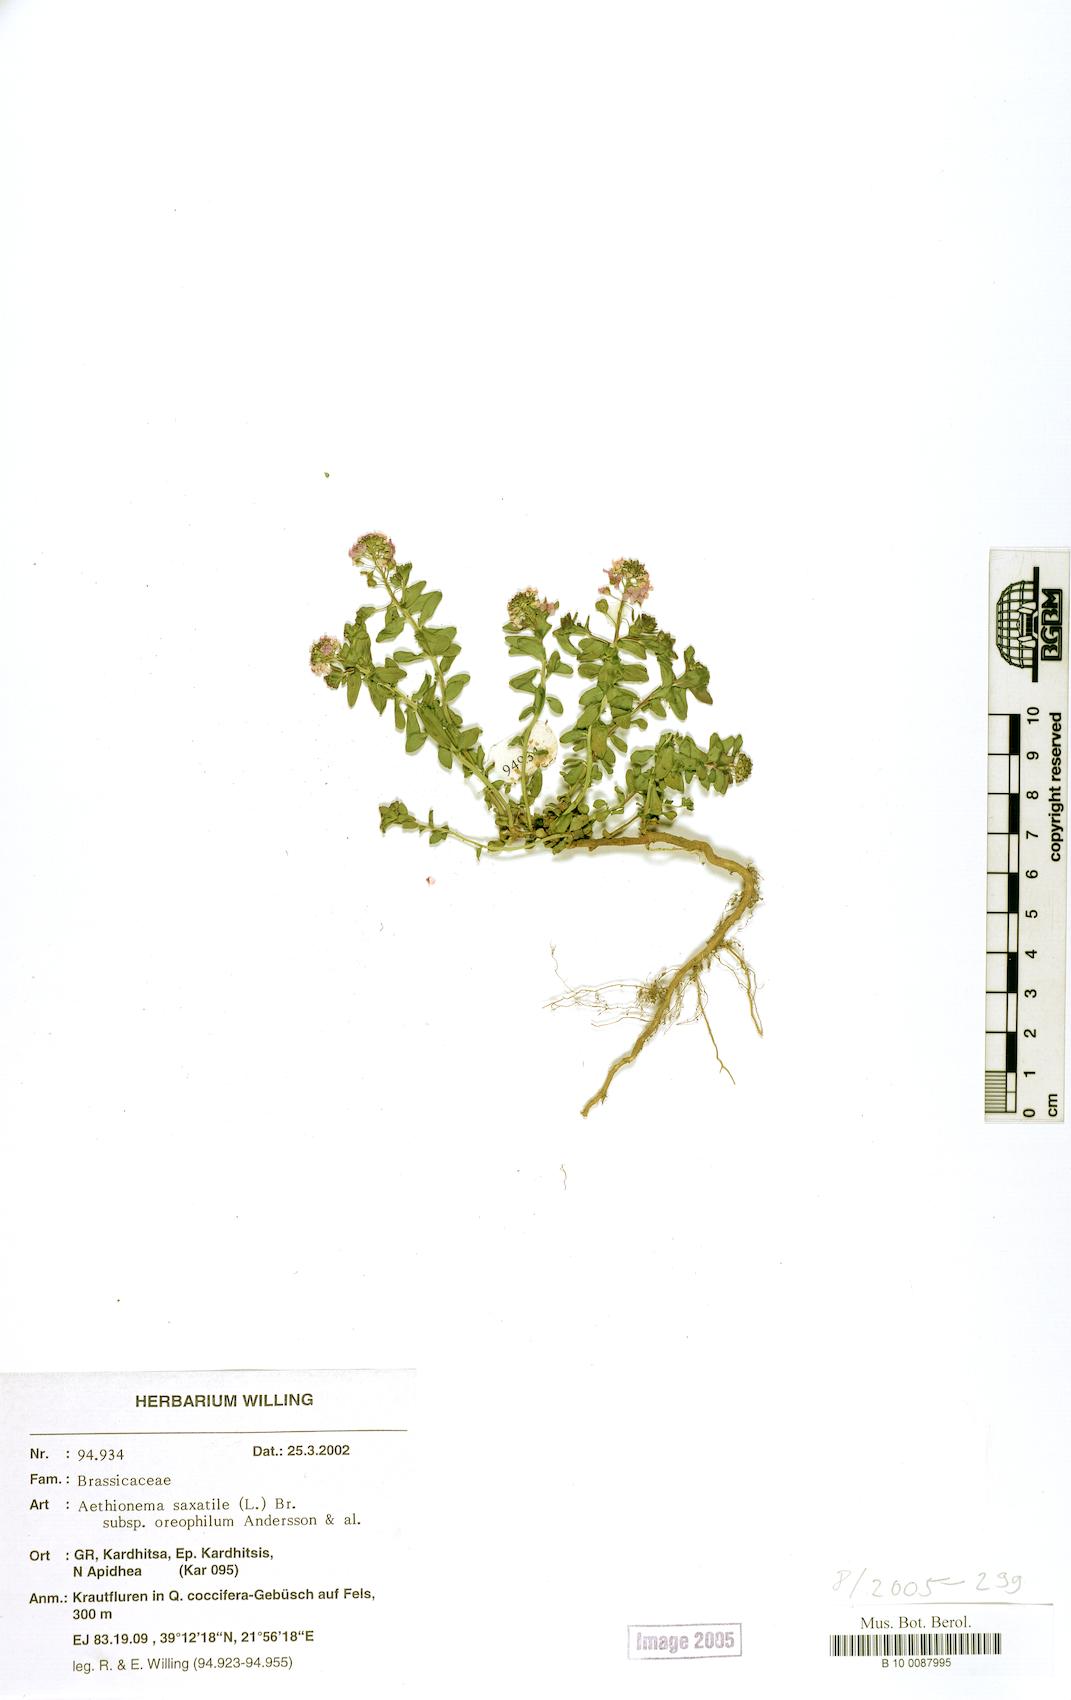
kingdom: Plantae
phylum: Tracheophyta
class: Magnoliopsida
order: Brassicales
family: Brassicaceae
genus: Aethionema
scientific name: Aethionema saxatile
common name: Burnt candytuft
